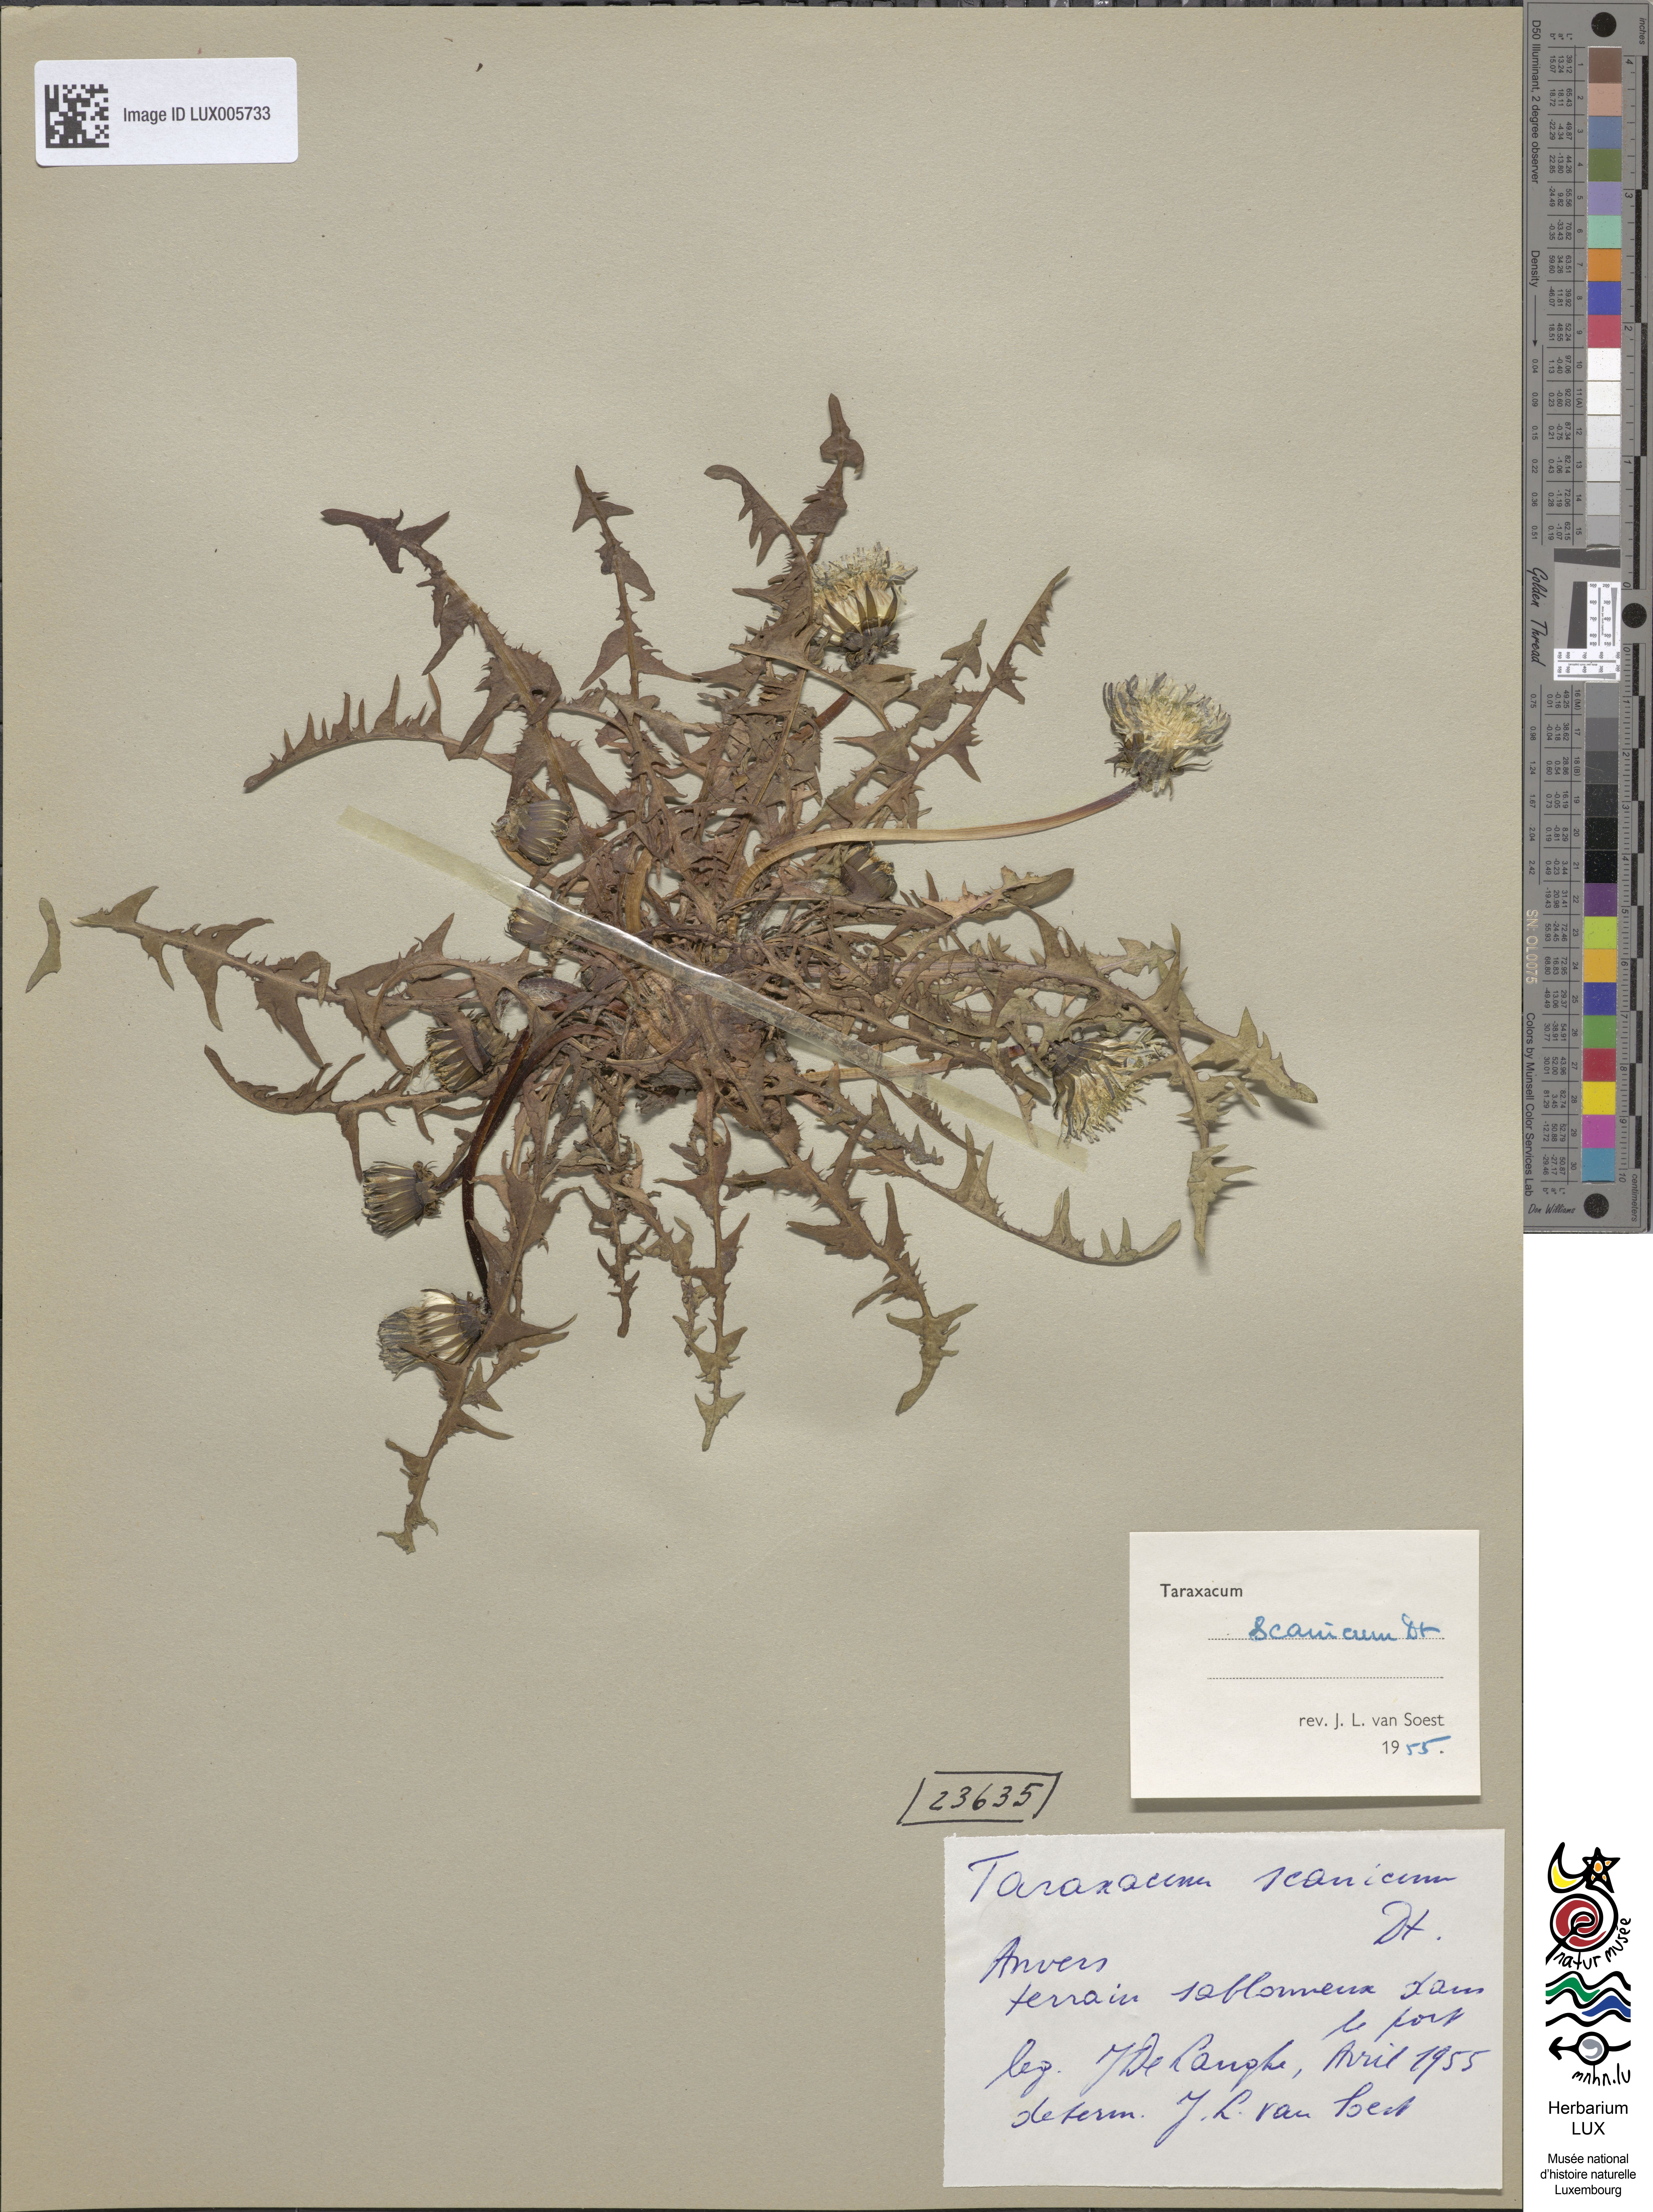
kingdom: Plantae
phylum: Tracheophyta
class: Magnoliopsida
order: Asterales
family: Asteraceae
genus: Taraxacum
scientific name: Taraxacum scanicum
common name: Skåne dandelion
